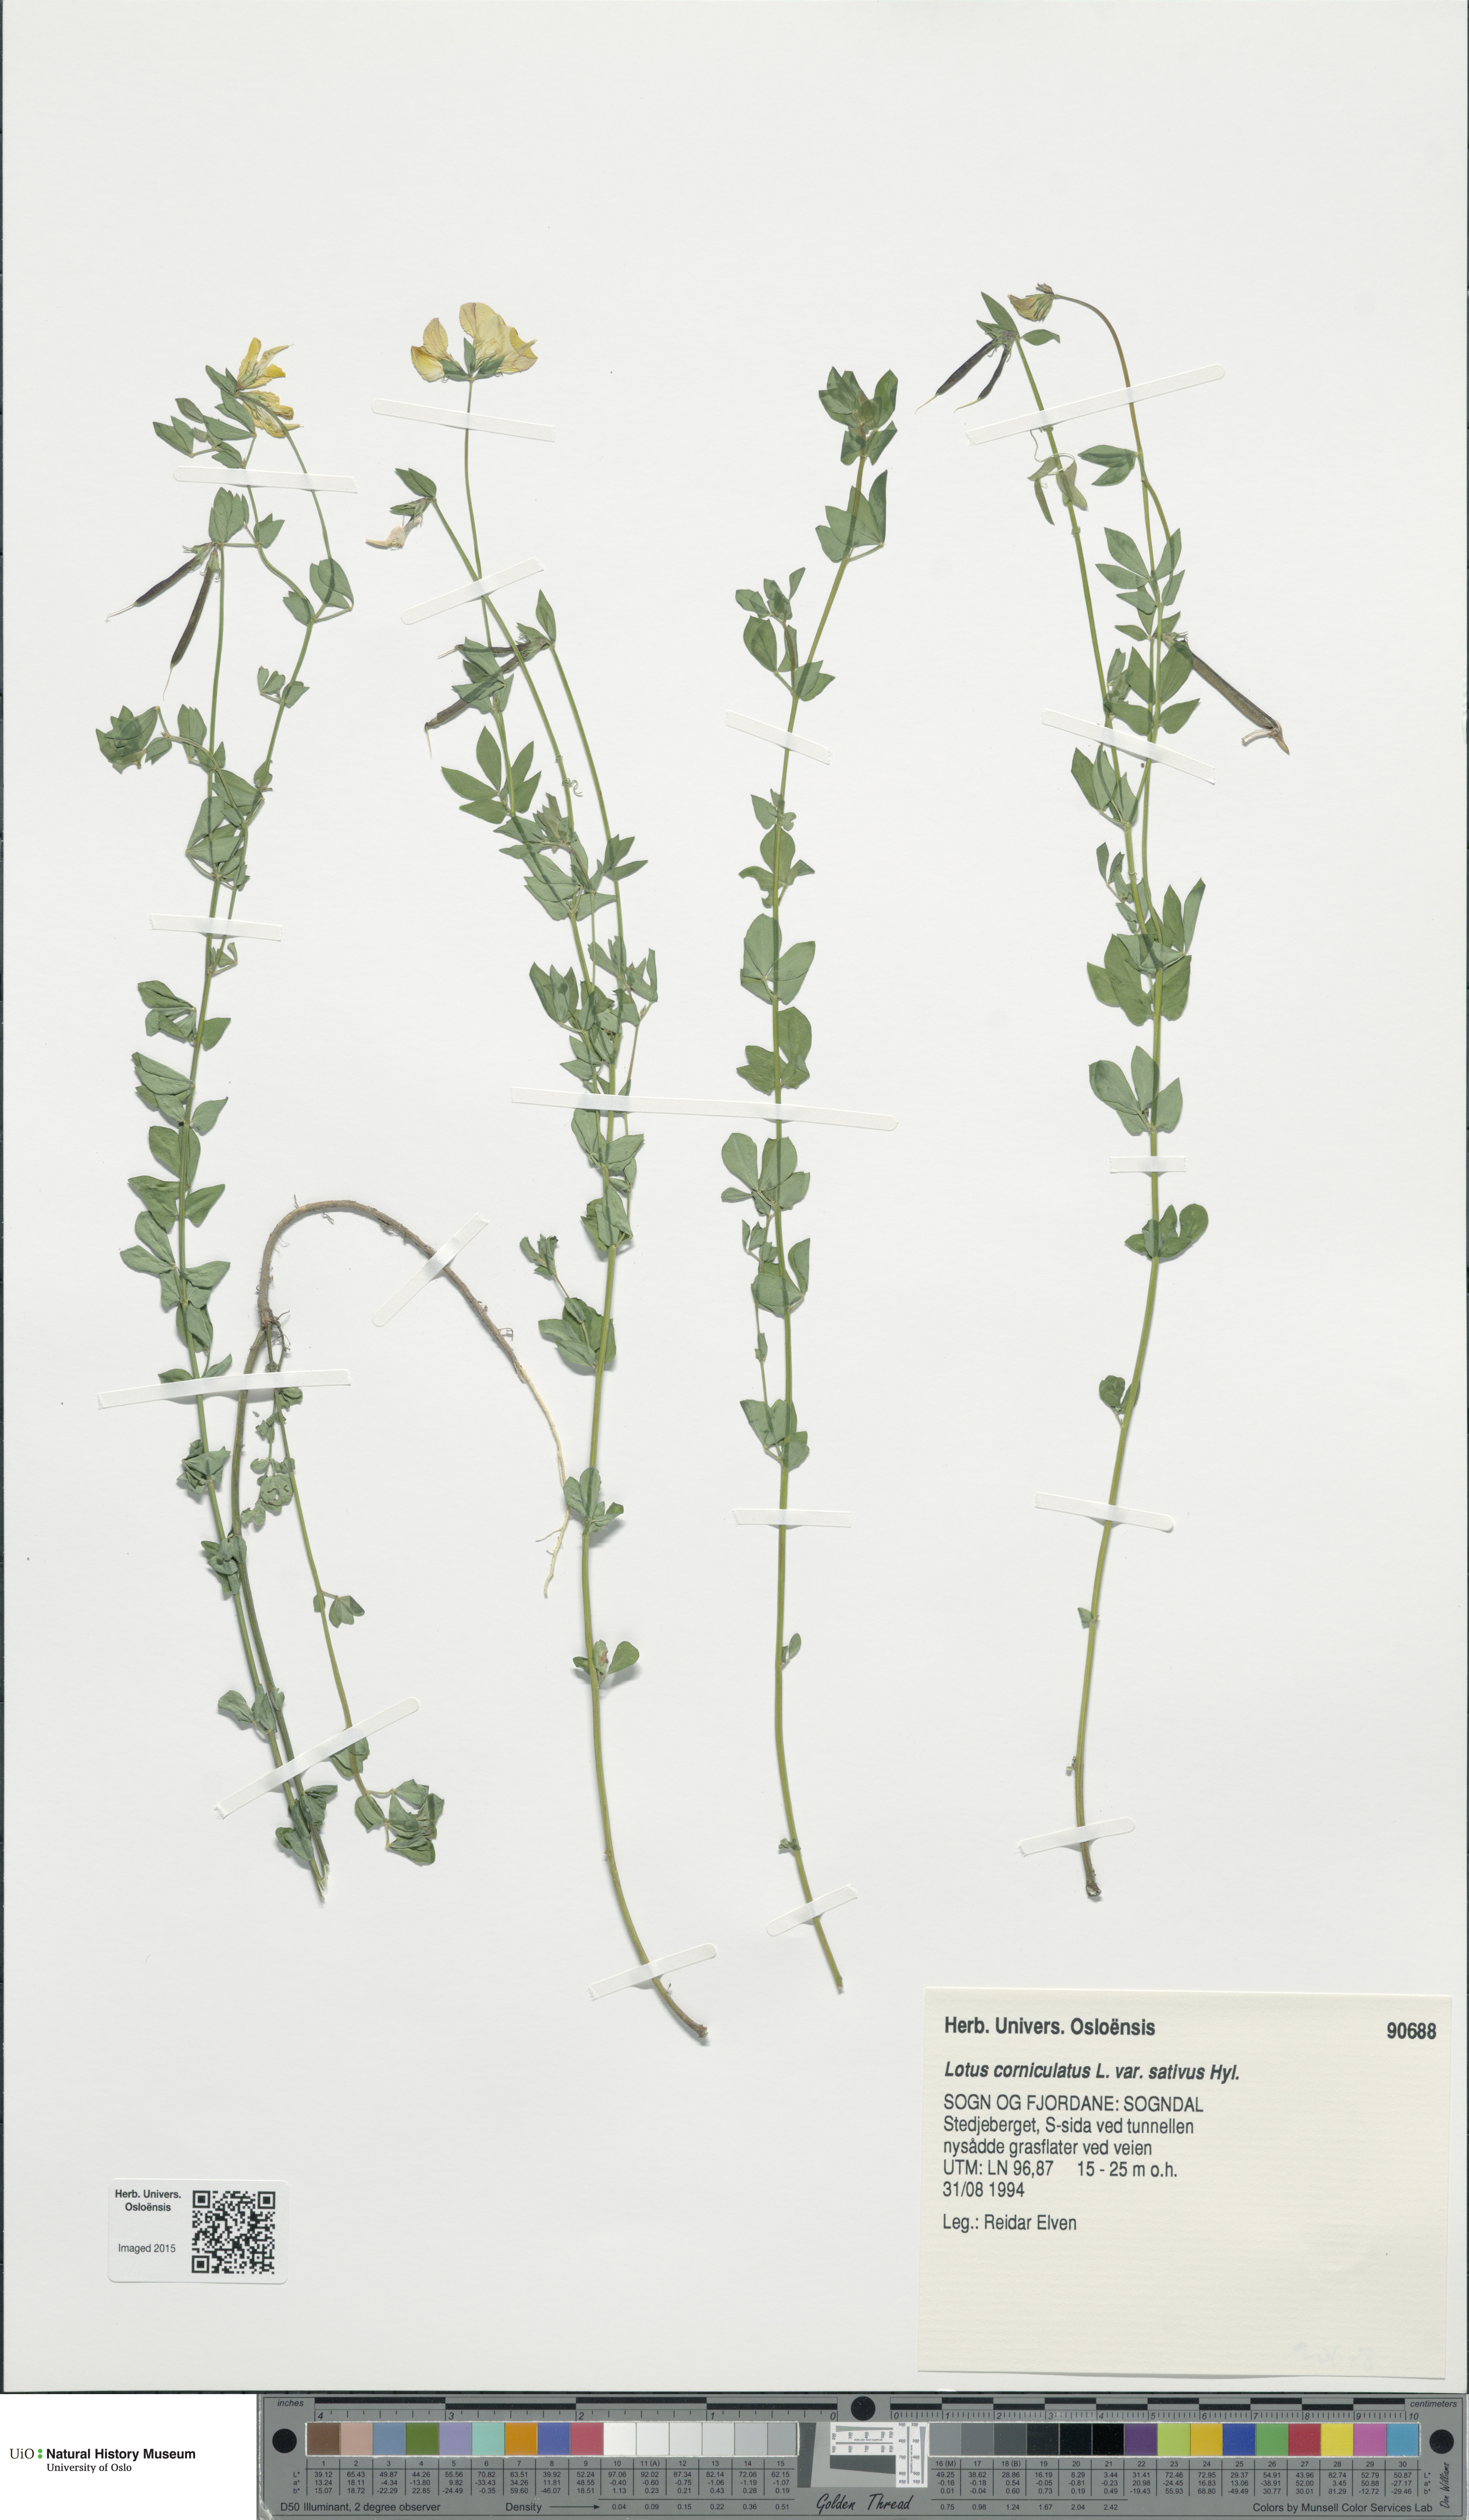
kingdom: Plantae
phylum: Tracheophyta
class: Magnoliopsida
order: Fabales
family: Fabaceae
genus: Lotus
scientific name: Lotus corniculatus
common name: Common bird's-foot-trefoil
